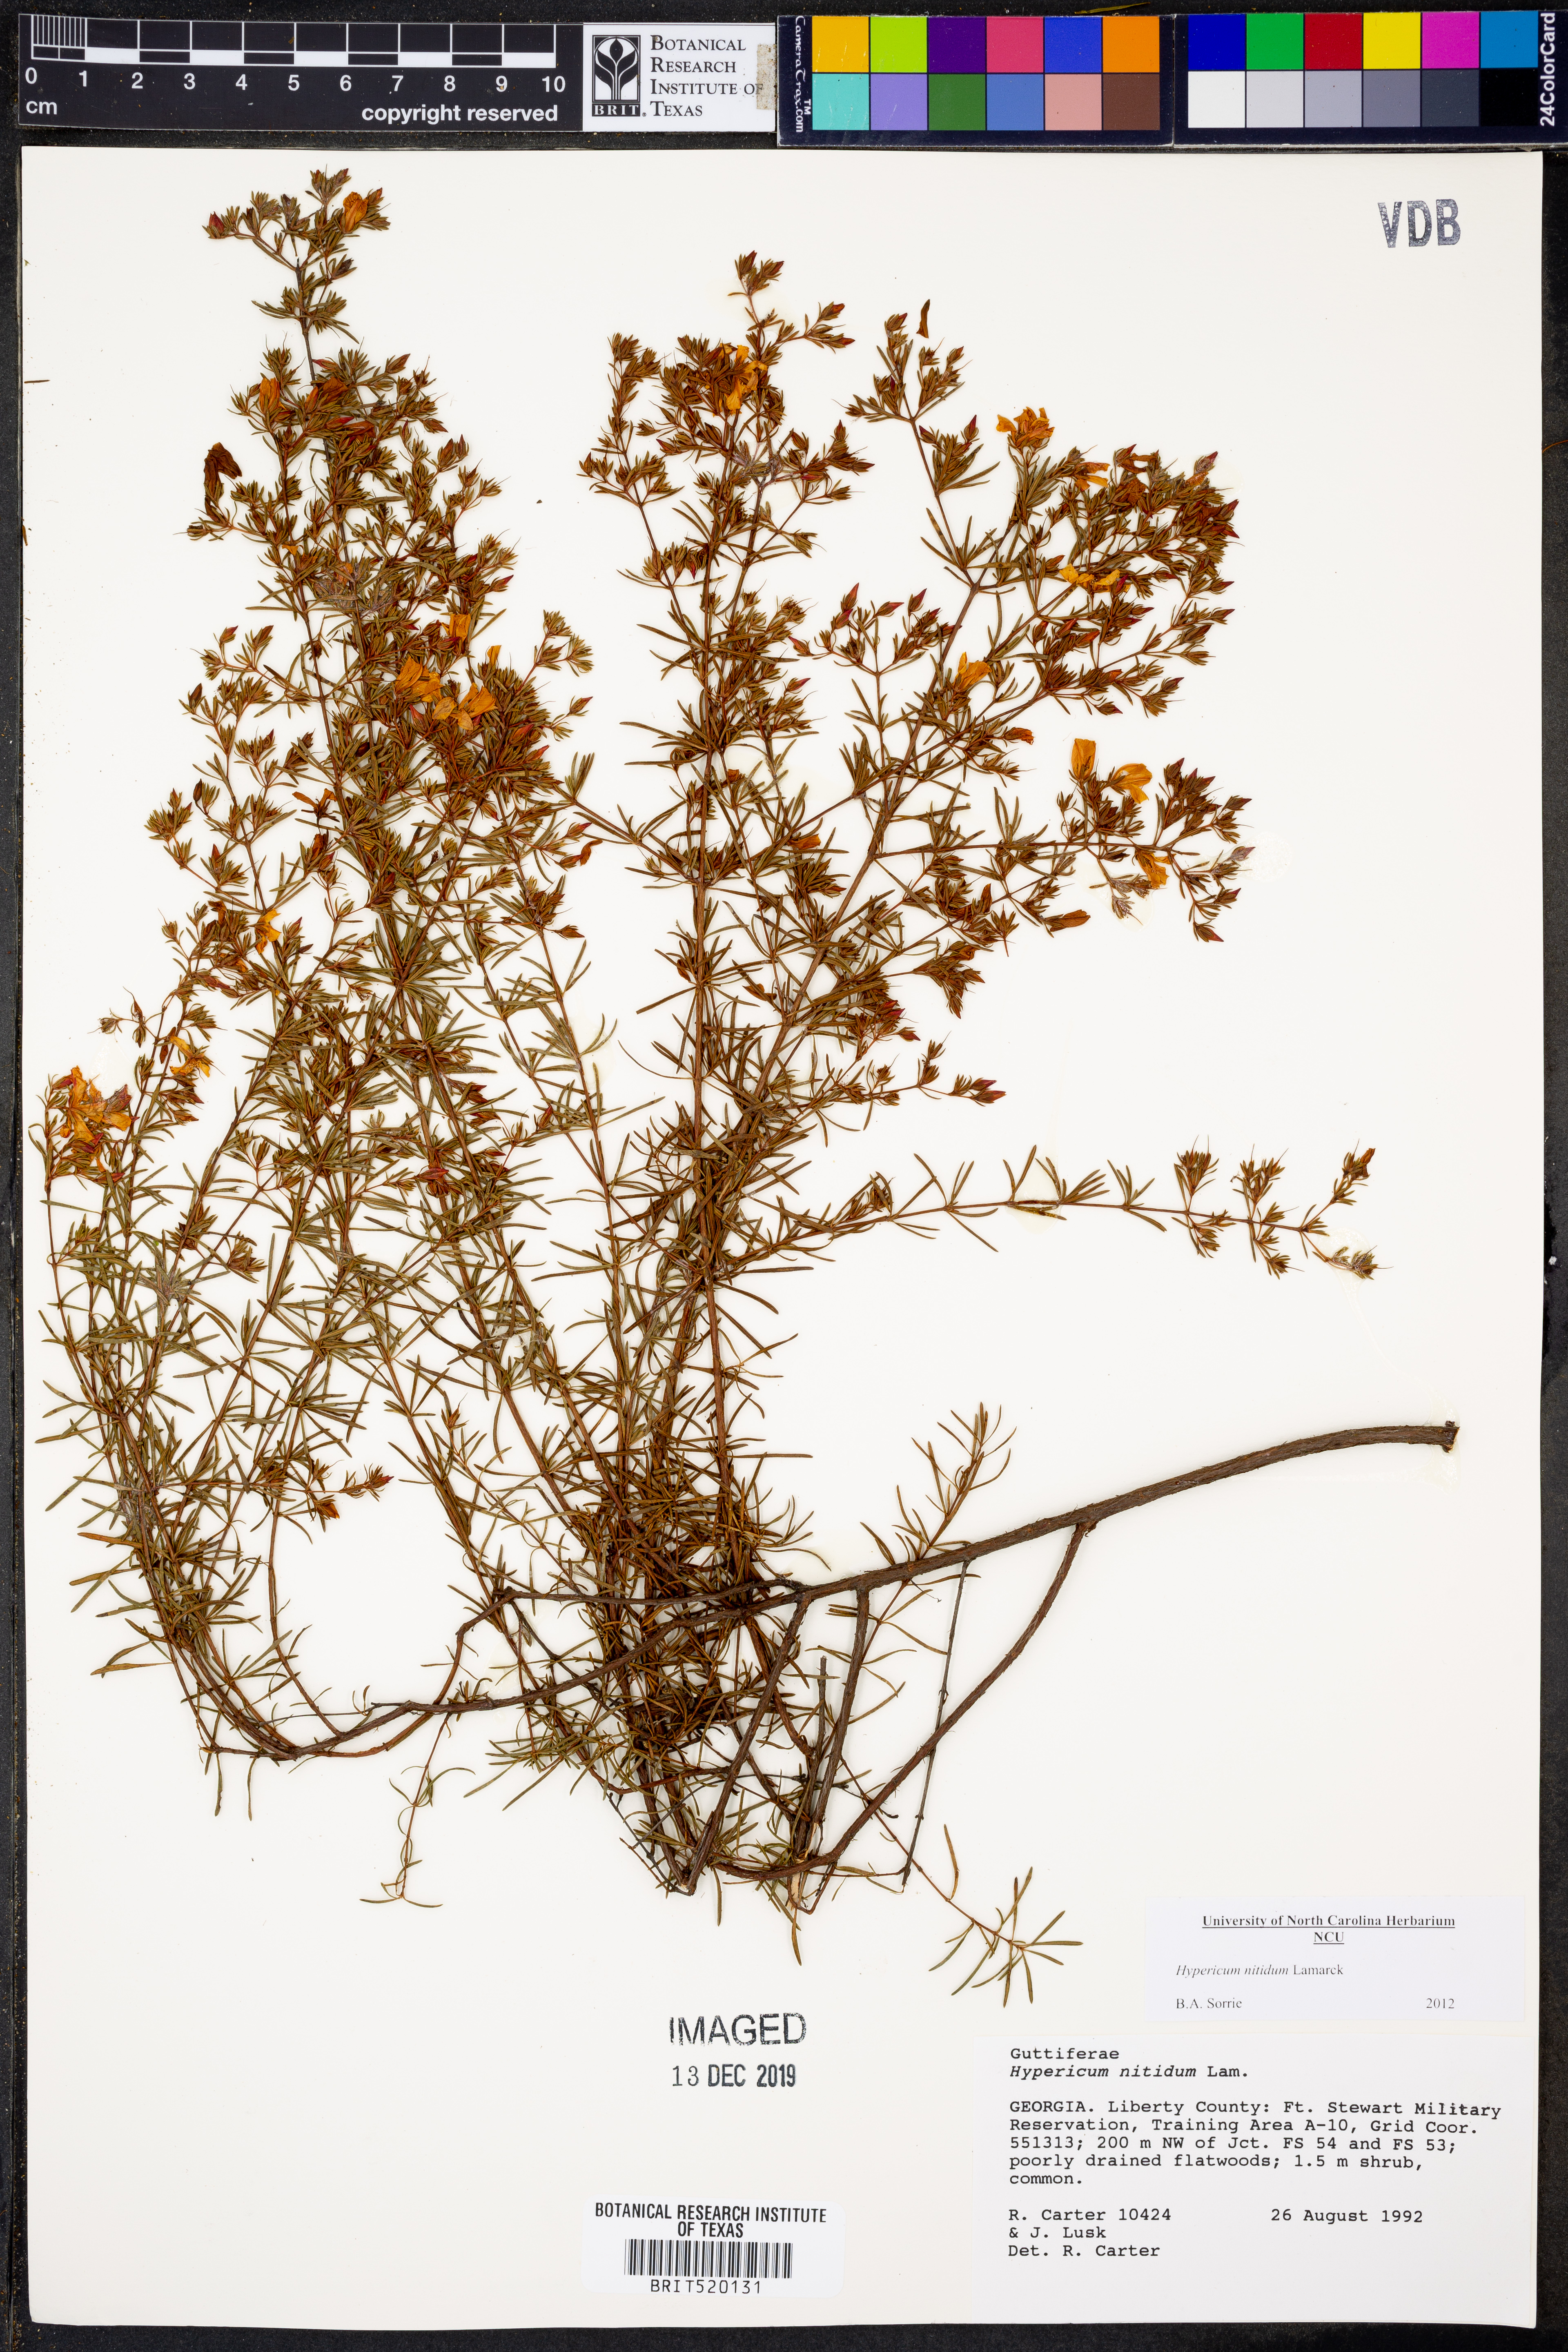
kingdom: Plantae
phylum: Tracheophyta
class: Magnoliopsida
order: Malpighiales
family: Hypericaceae
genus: Hypericum
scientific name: Hypericum nitidum
